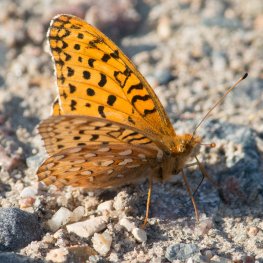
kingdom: Animalia
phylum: Arthropoda
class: Insecta
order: Lepidoptera
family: Nymphalidae
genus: Speyeria
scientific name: Speyeria atlantis
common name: Northwestern Fritillary
